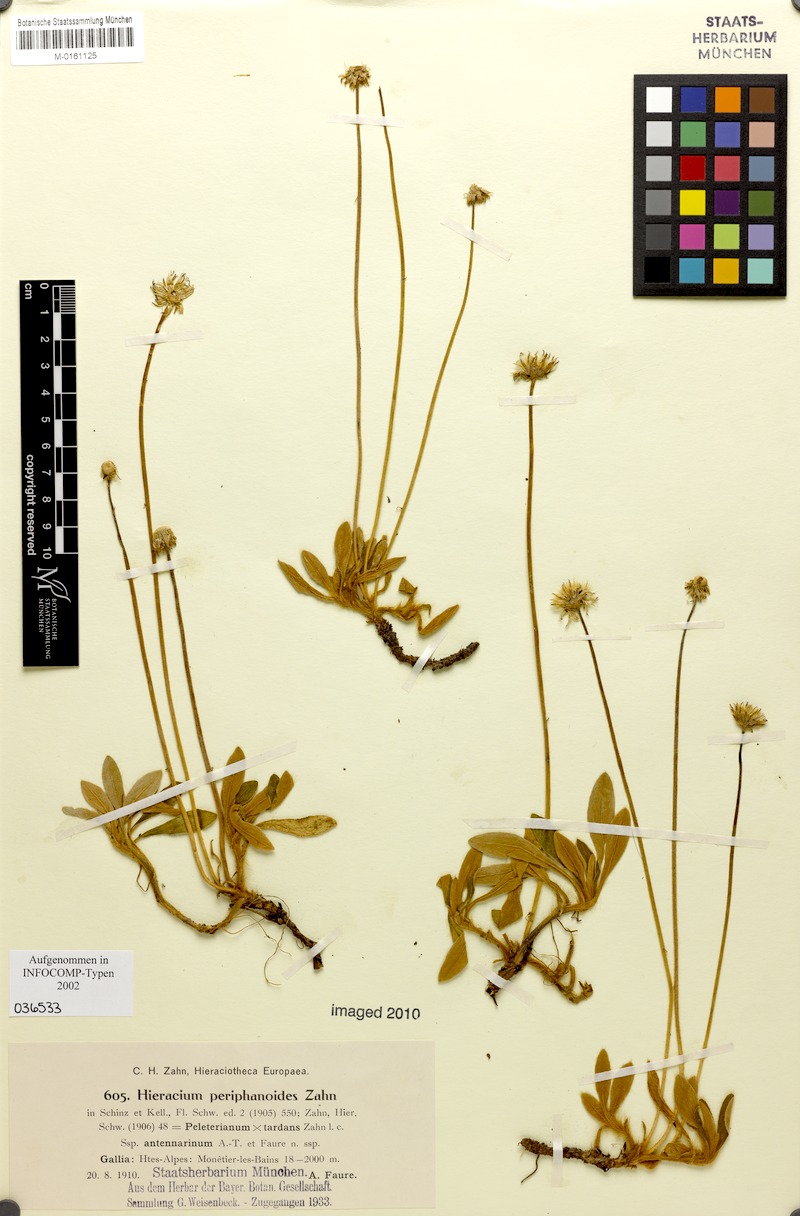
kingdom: Plantae
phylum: Tracheophyta
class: Magnoliopsida
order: Asterales
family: Asteraceae
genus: Pilosella
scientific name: Pilosella capillata
